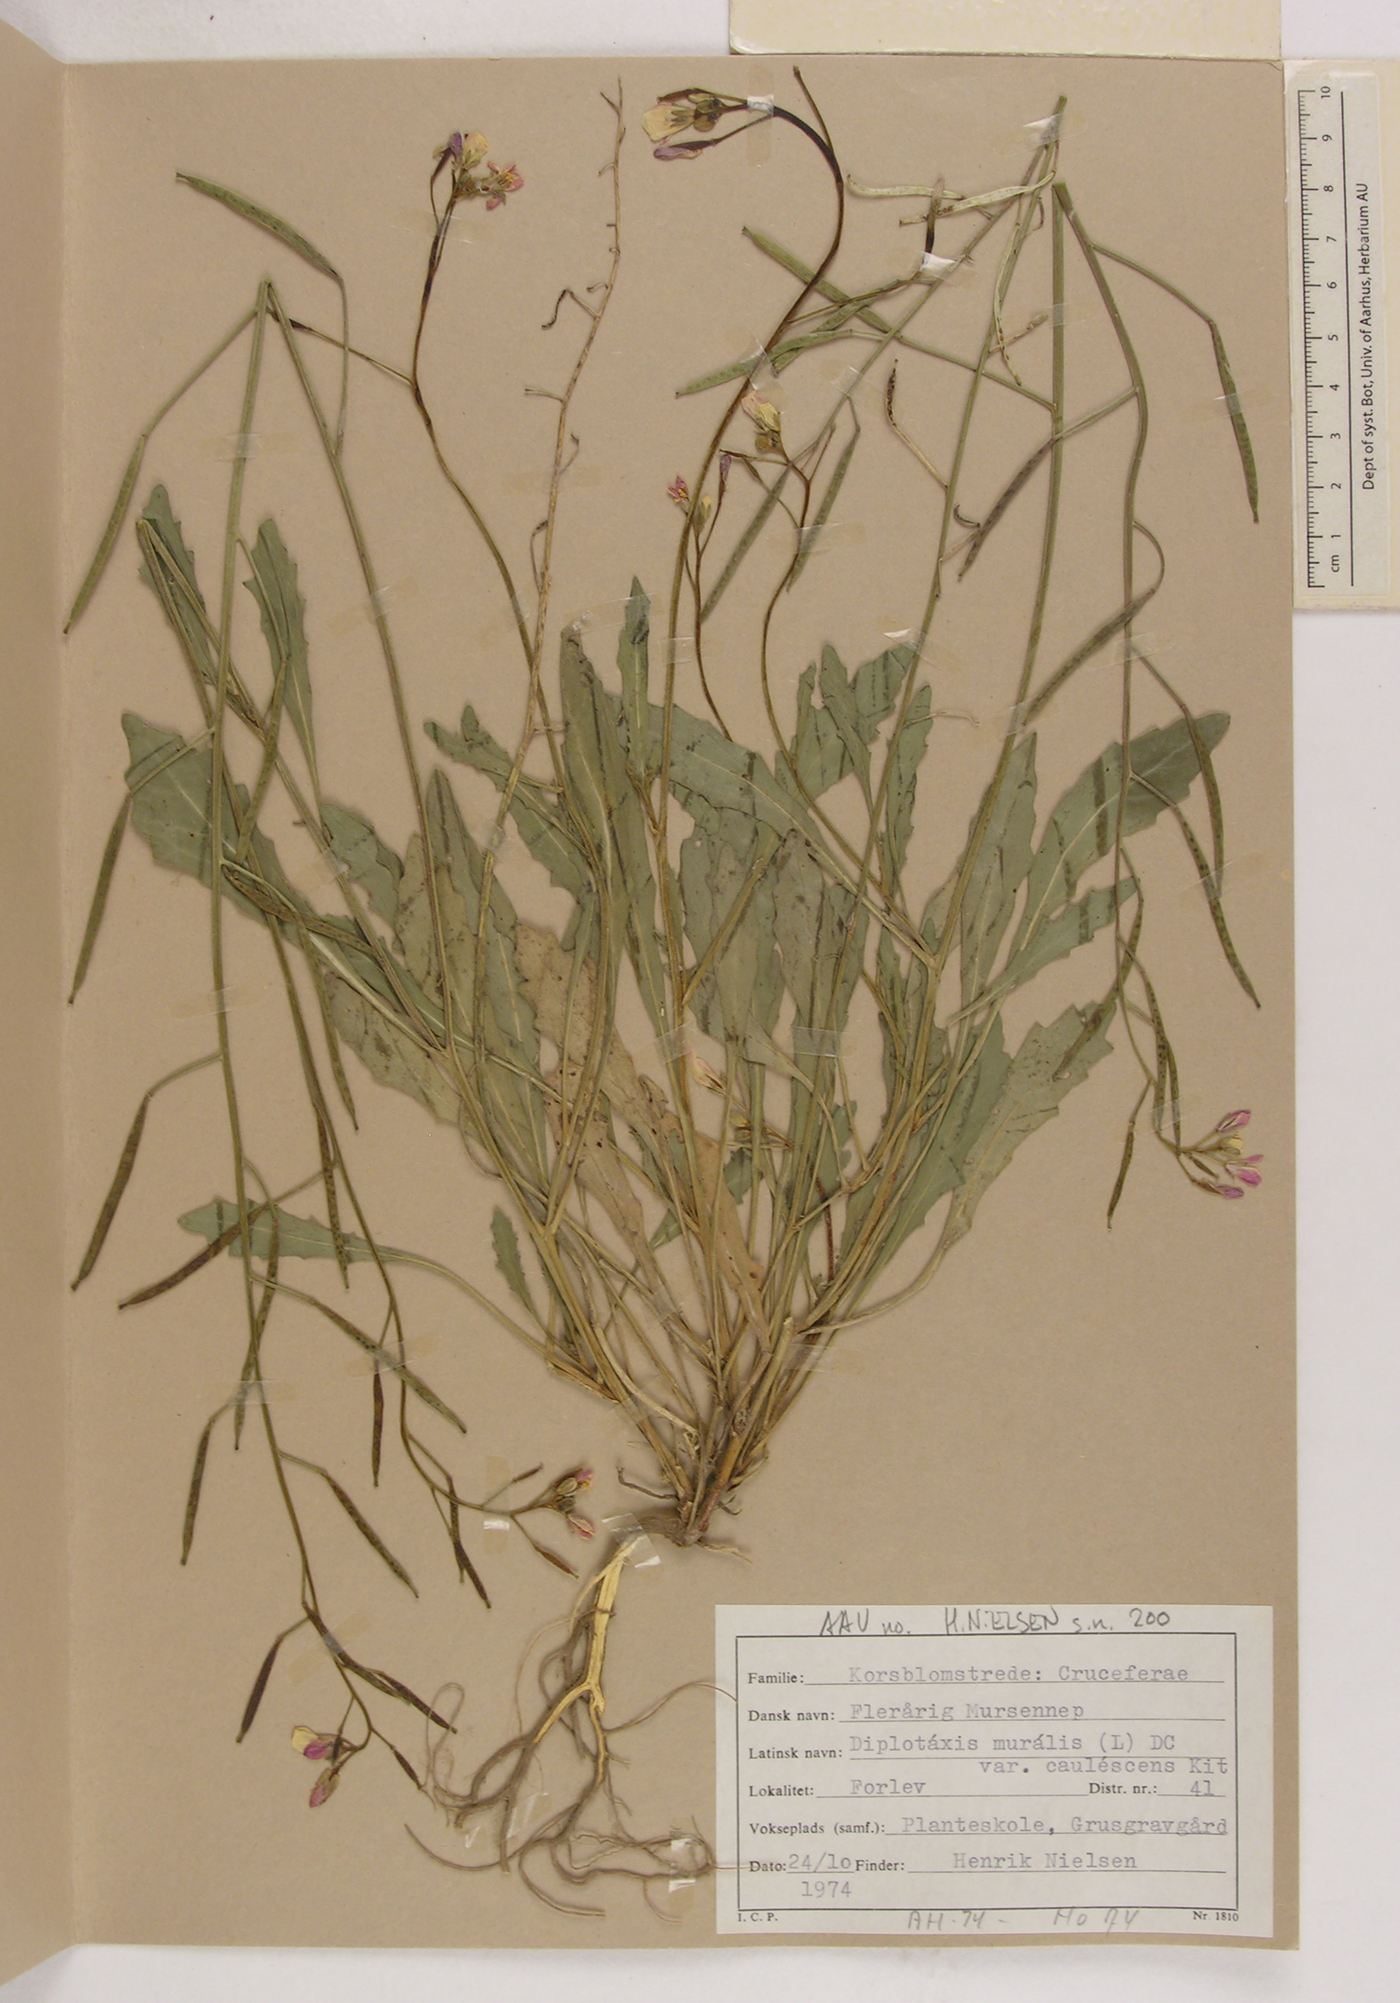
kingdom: Plantae
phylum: Tracheophyta
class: Magnoliopsida
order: Brassicales
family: Brassicaceae
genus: Diplotaxis
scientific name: Diplotaxis muralis
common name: Annual wall-rocket
